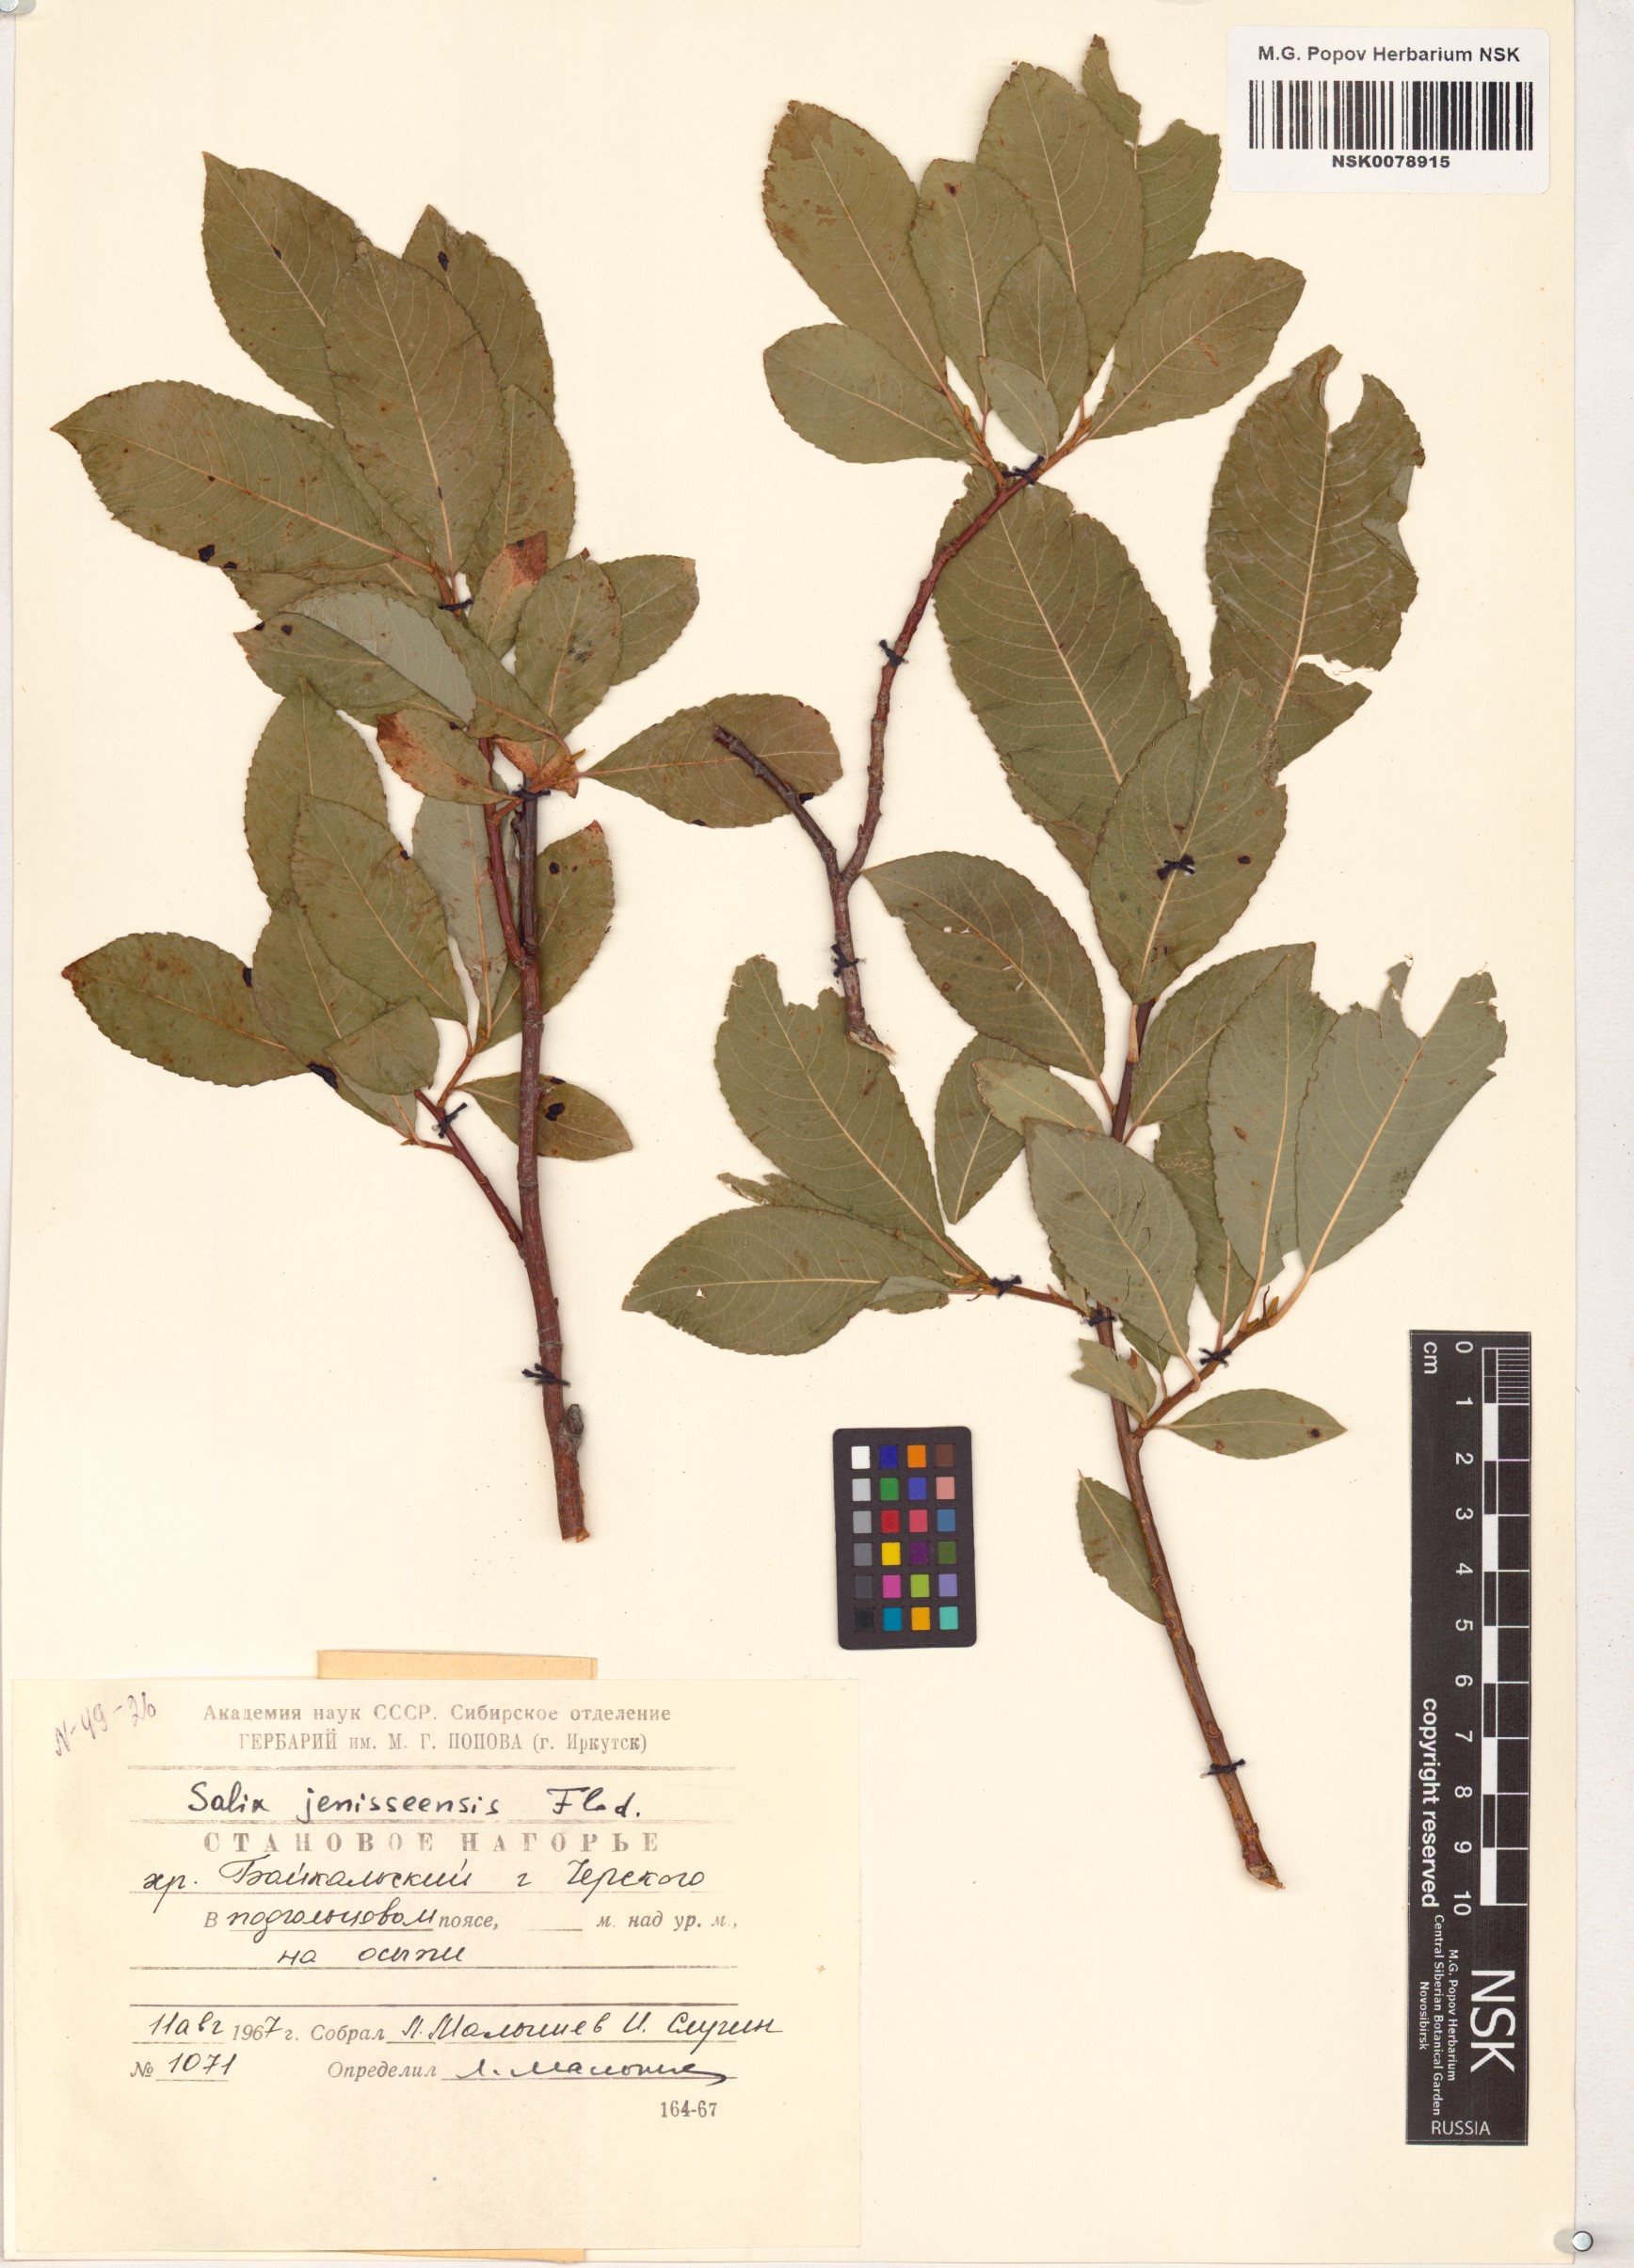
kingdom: Plantae
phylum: Tracheophyta
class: Magnoliopsida
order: Malpighiales
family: Salicaceae
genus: Salix
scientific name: Salix jenisseensis
